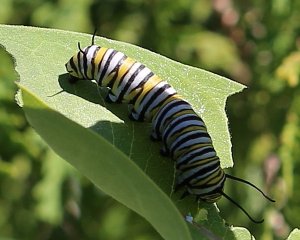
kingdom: Animalia
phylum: Arthropoda
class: Insecta
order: Lepidoptera
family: Nymphalidae
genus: Danaus
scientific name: Danaus plexippus
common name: Monarch
